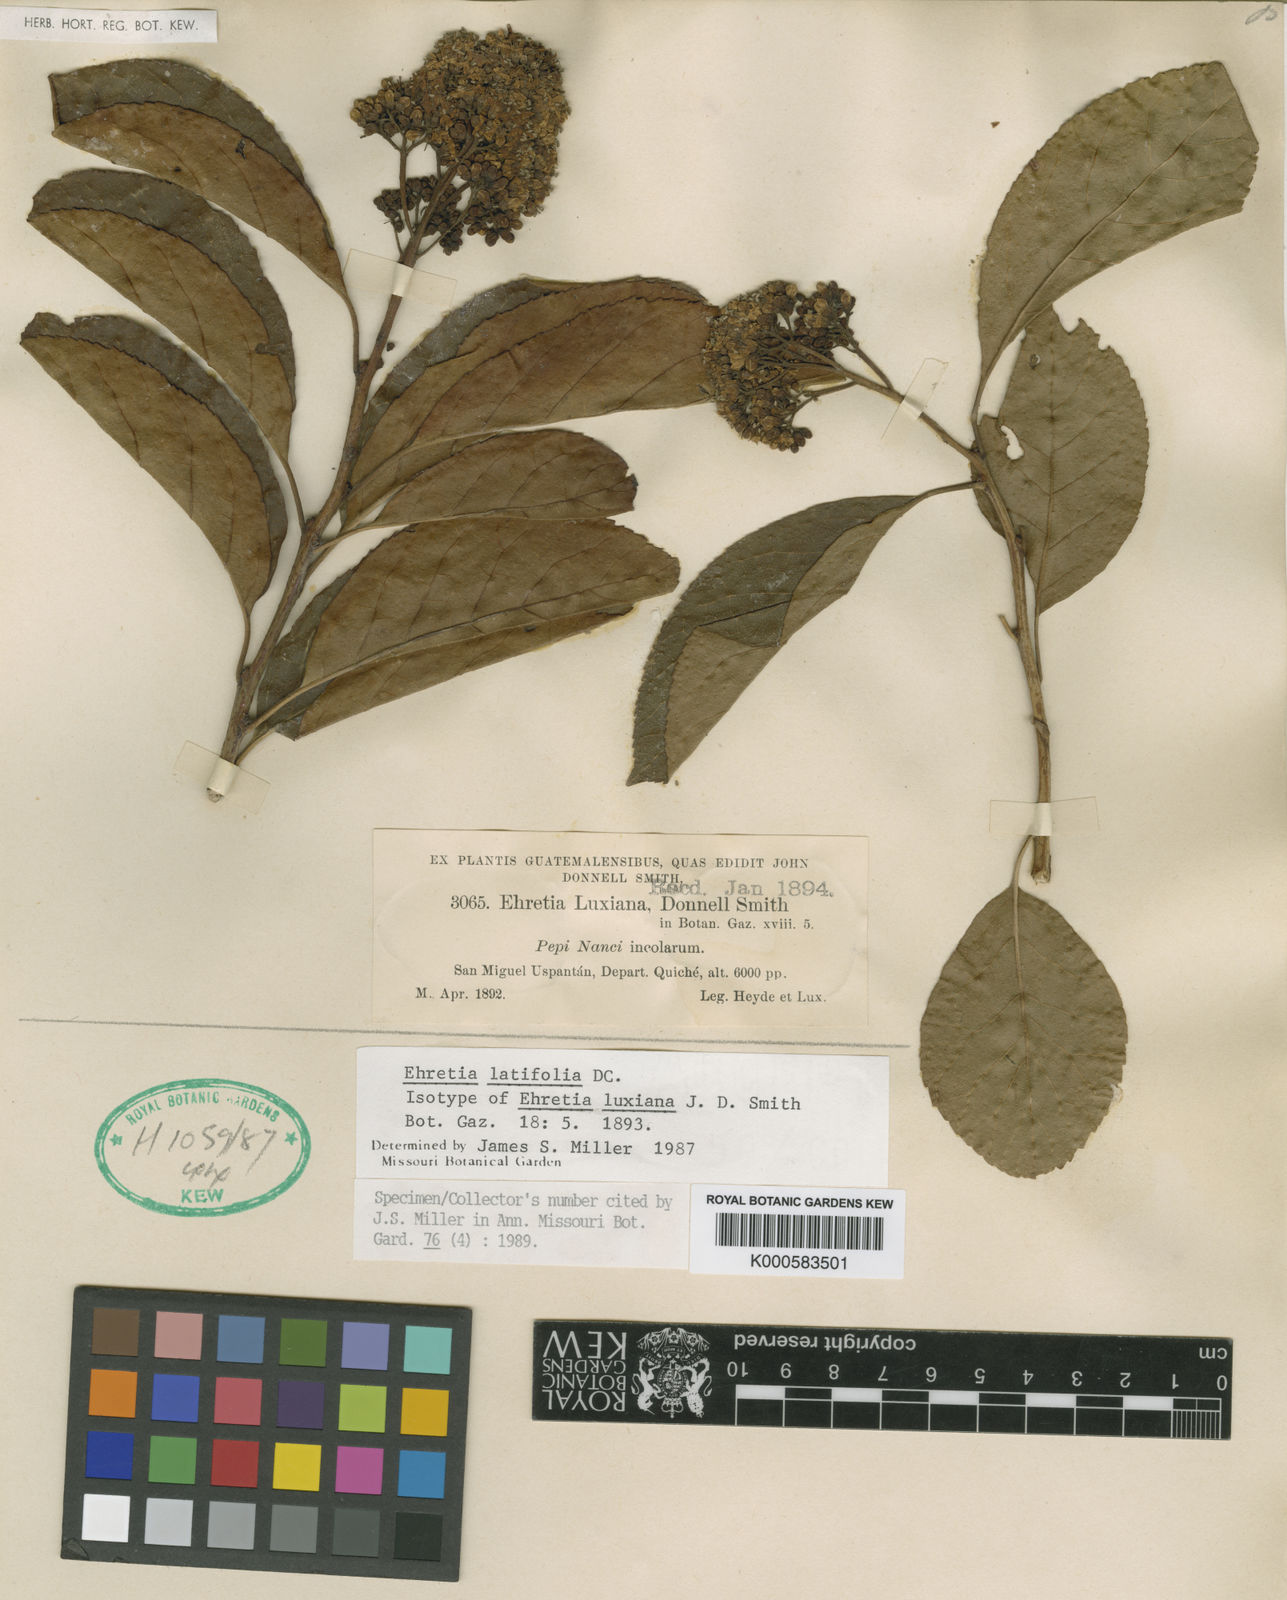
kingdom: Plantae
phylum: Tracheophyta
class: Magnoliopsida
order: Boraginales
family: Ehretiaceae
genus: Ehretia
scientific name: Ehretia
